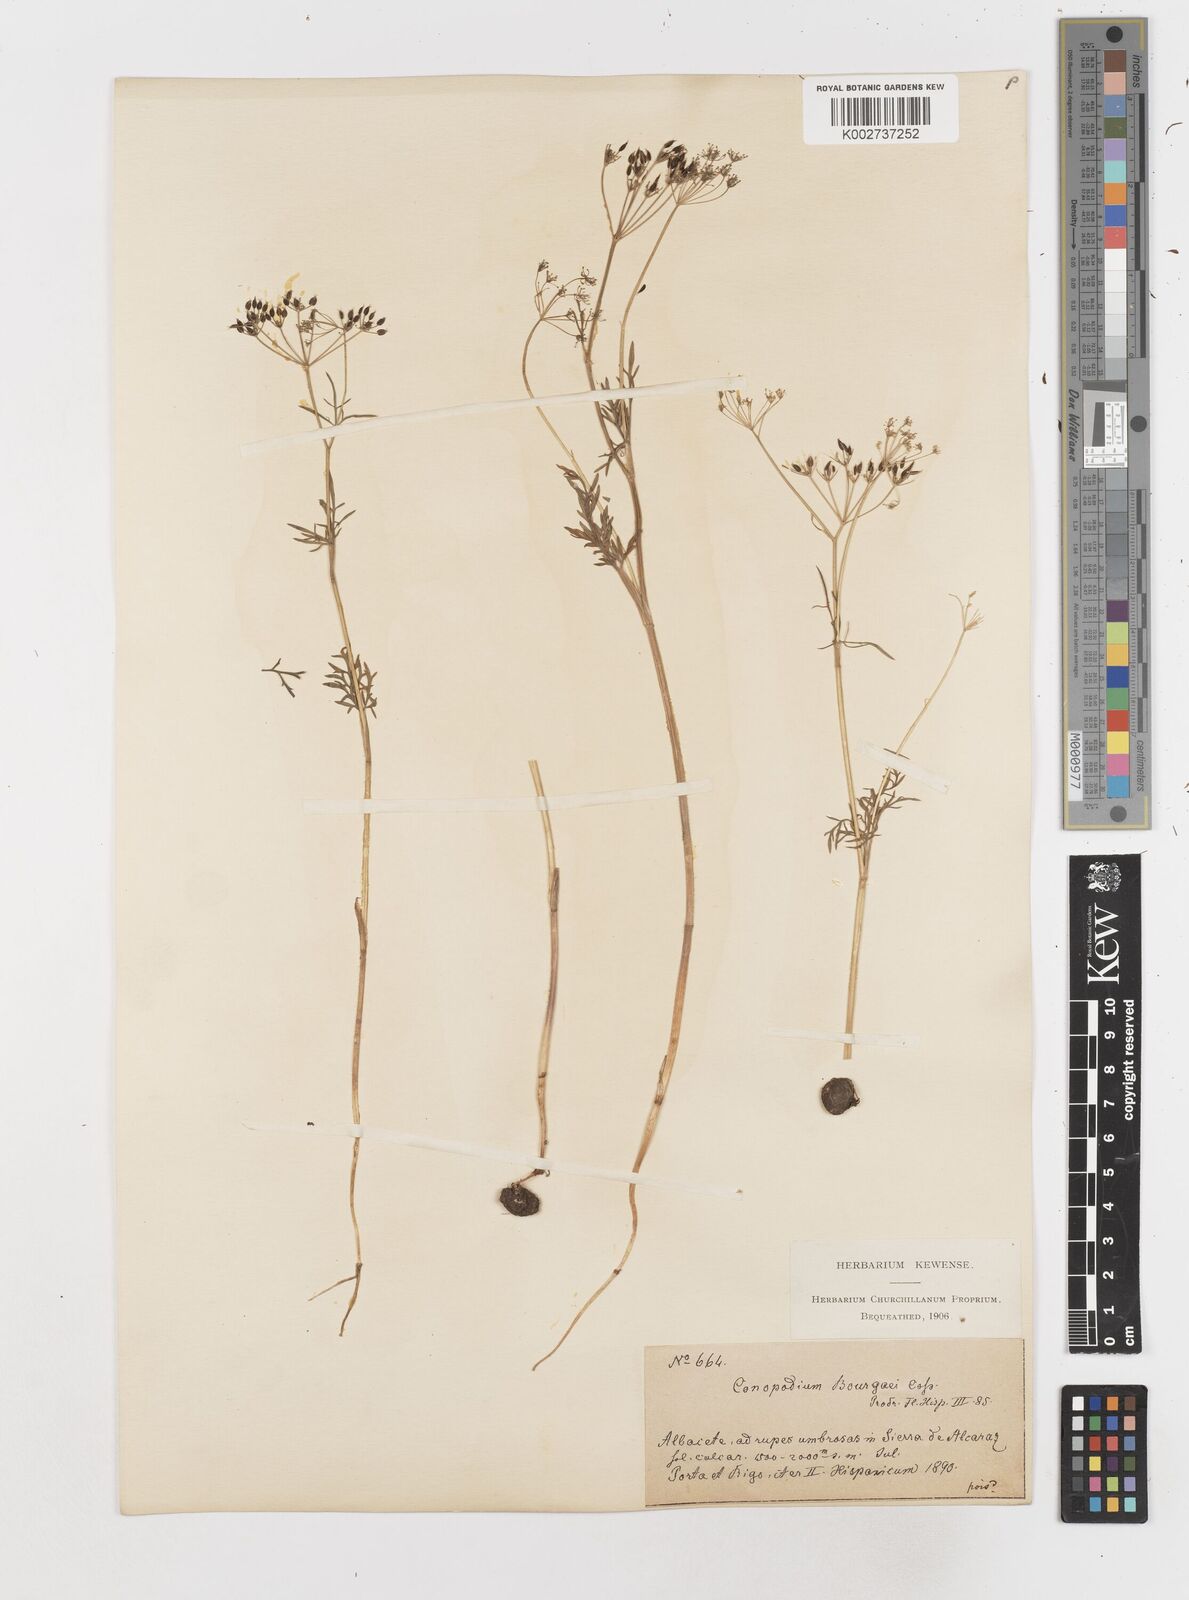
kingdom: Plantae
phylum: Tracheophyta
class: Magnoliopsida
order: Apiales
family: Apiaceae
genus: Conopodium
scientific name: Conopodium pyrenaeum
